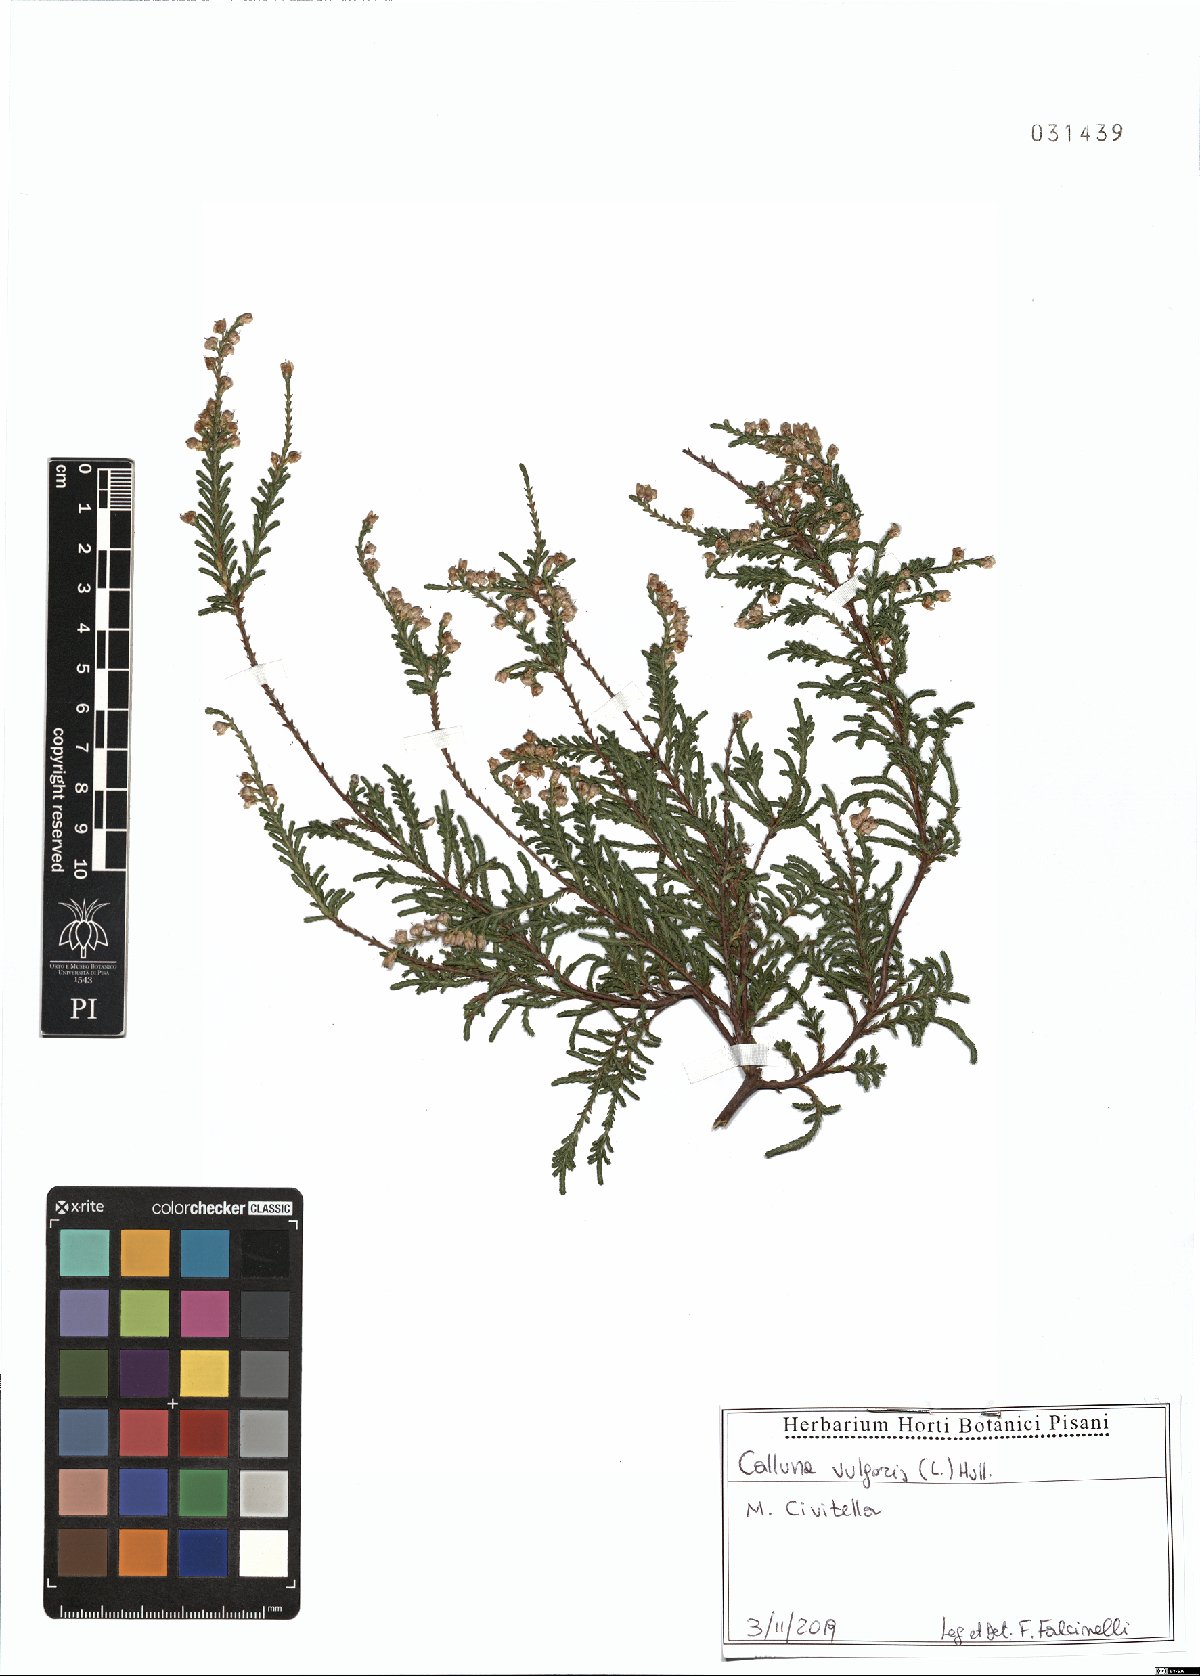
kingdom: Plantae
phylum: Tracheophyta
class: Magnoliopsida
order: Ericales
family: Ericaceae
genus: Calluna
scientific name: Calluna vulgaris
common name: Heather
